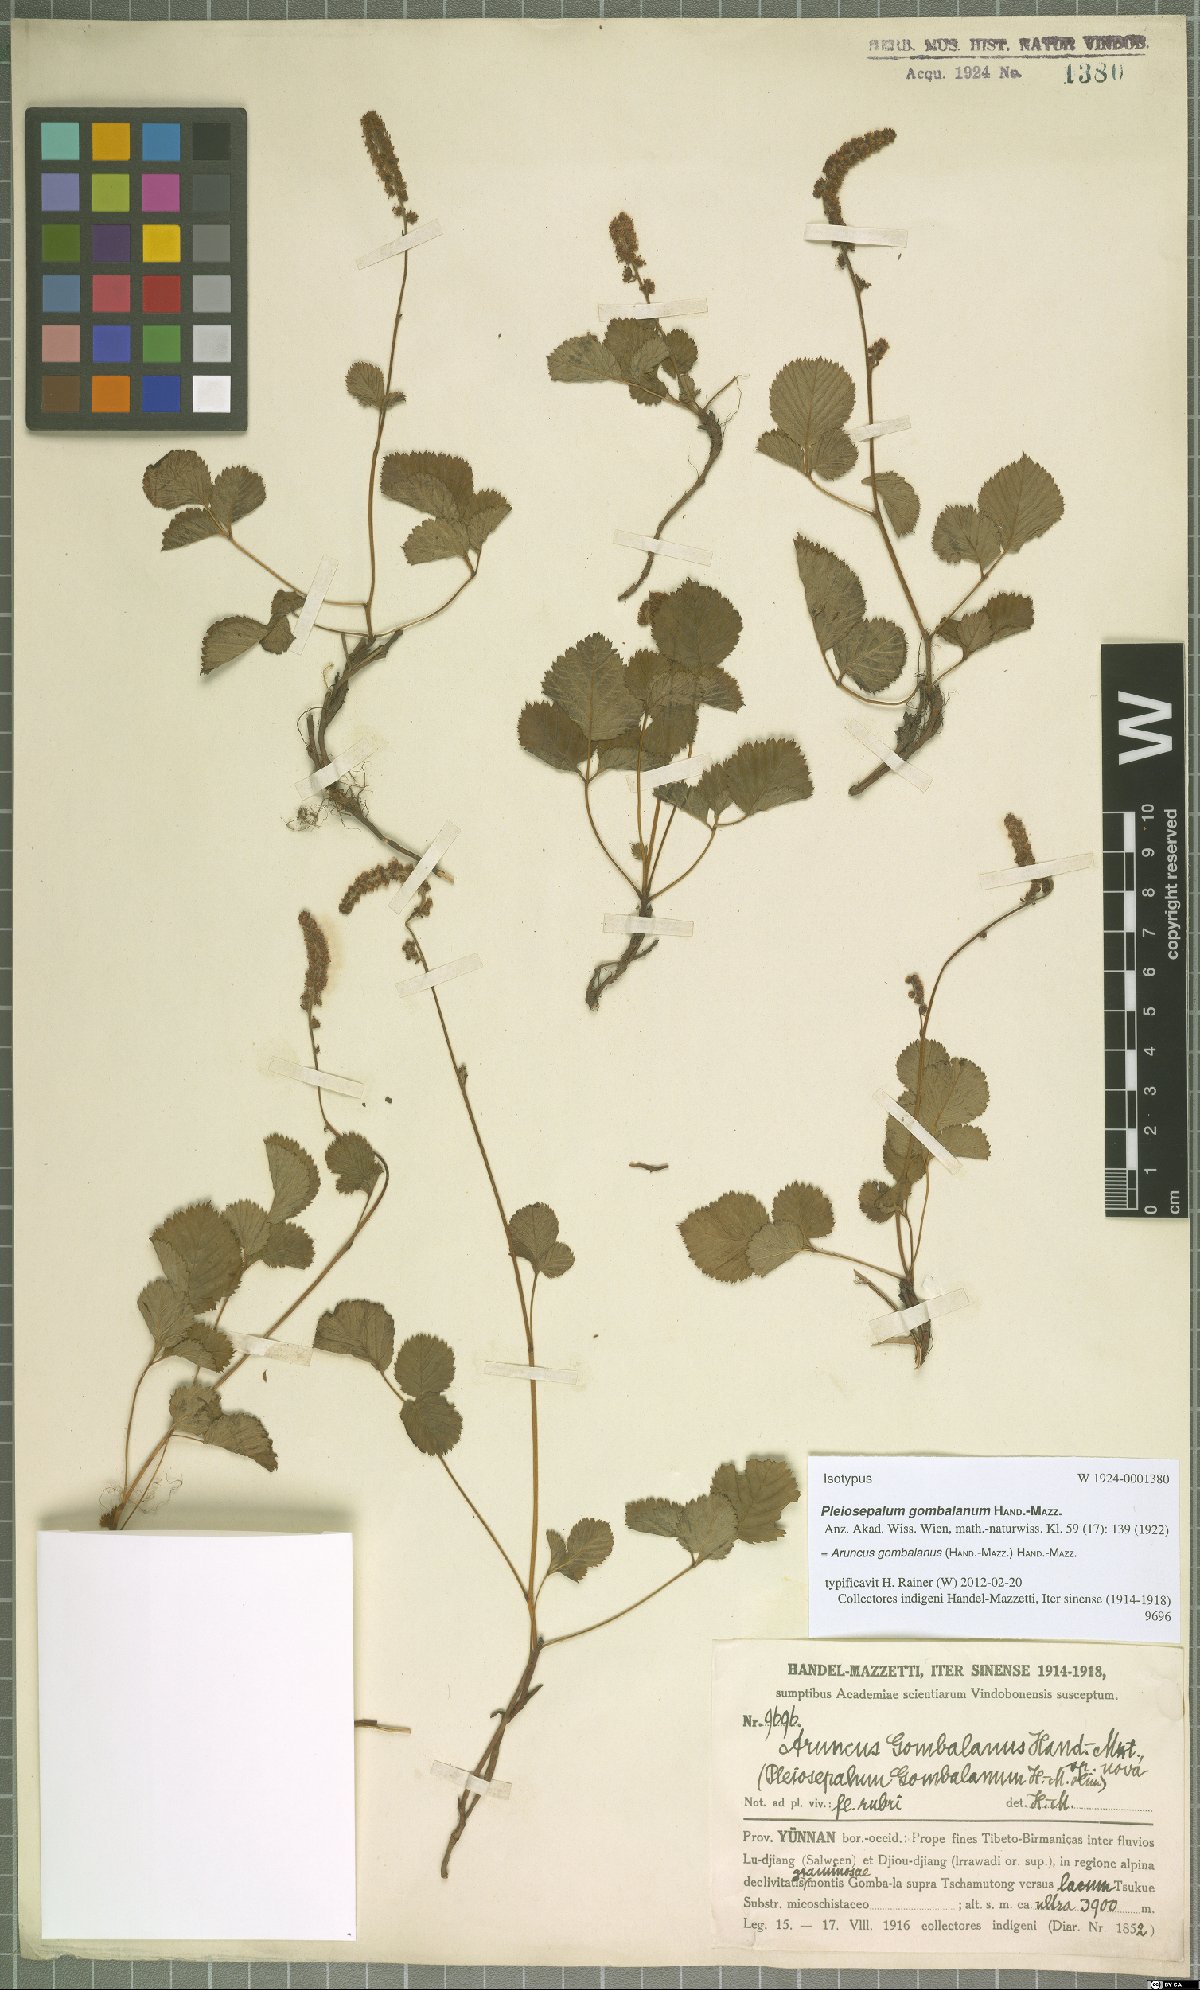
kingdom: Plantae
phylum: Tracheophyta
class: Magnoliopsida
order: Rosales
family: Rosaceae
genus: Aruncus
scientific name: Aruncus gombalanus
